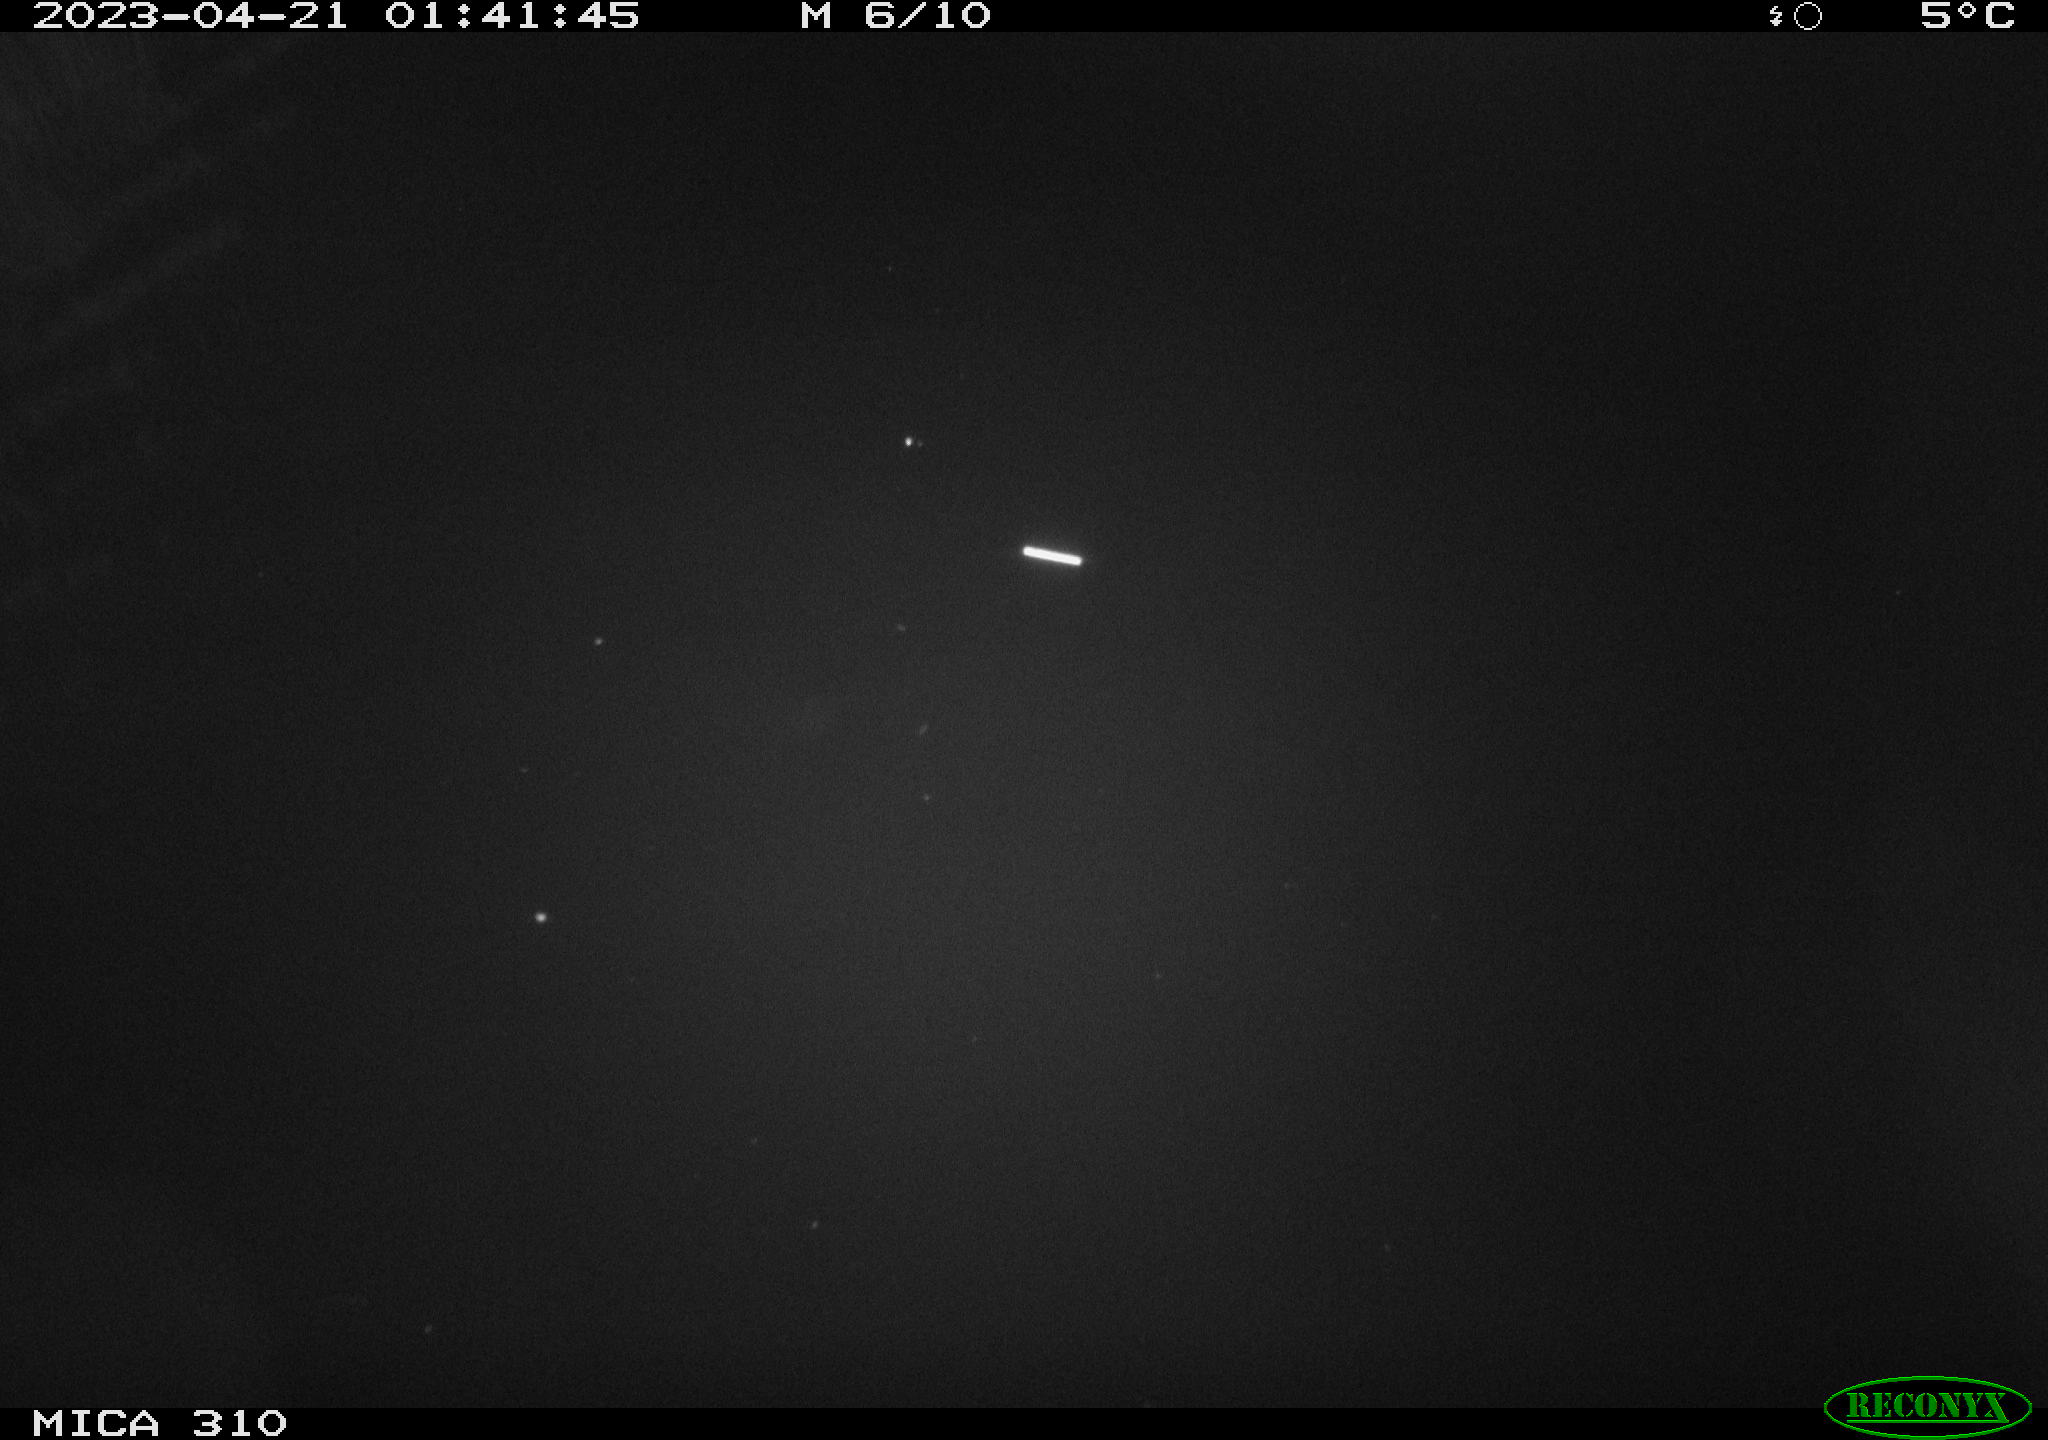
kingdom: Animalia
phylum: Chordata
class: Aves
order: Anseriformes
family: Anatidae
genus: Anas
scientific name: Anas
